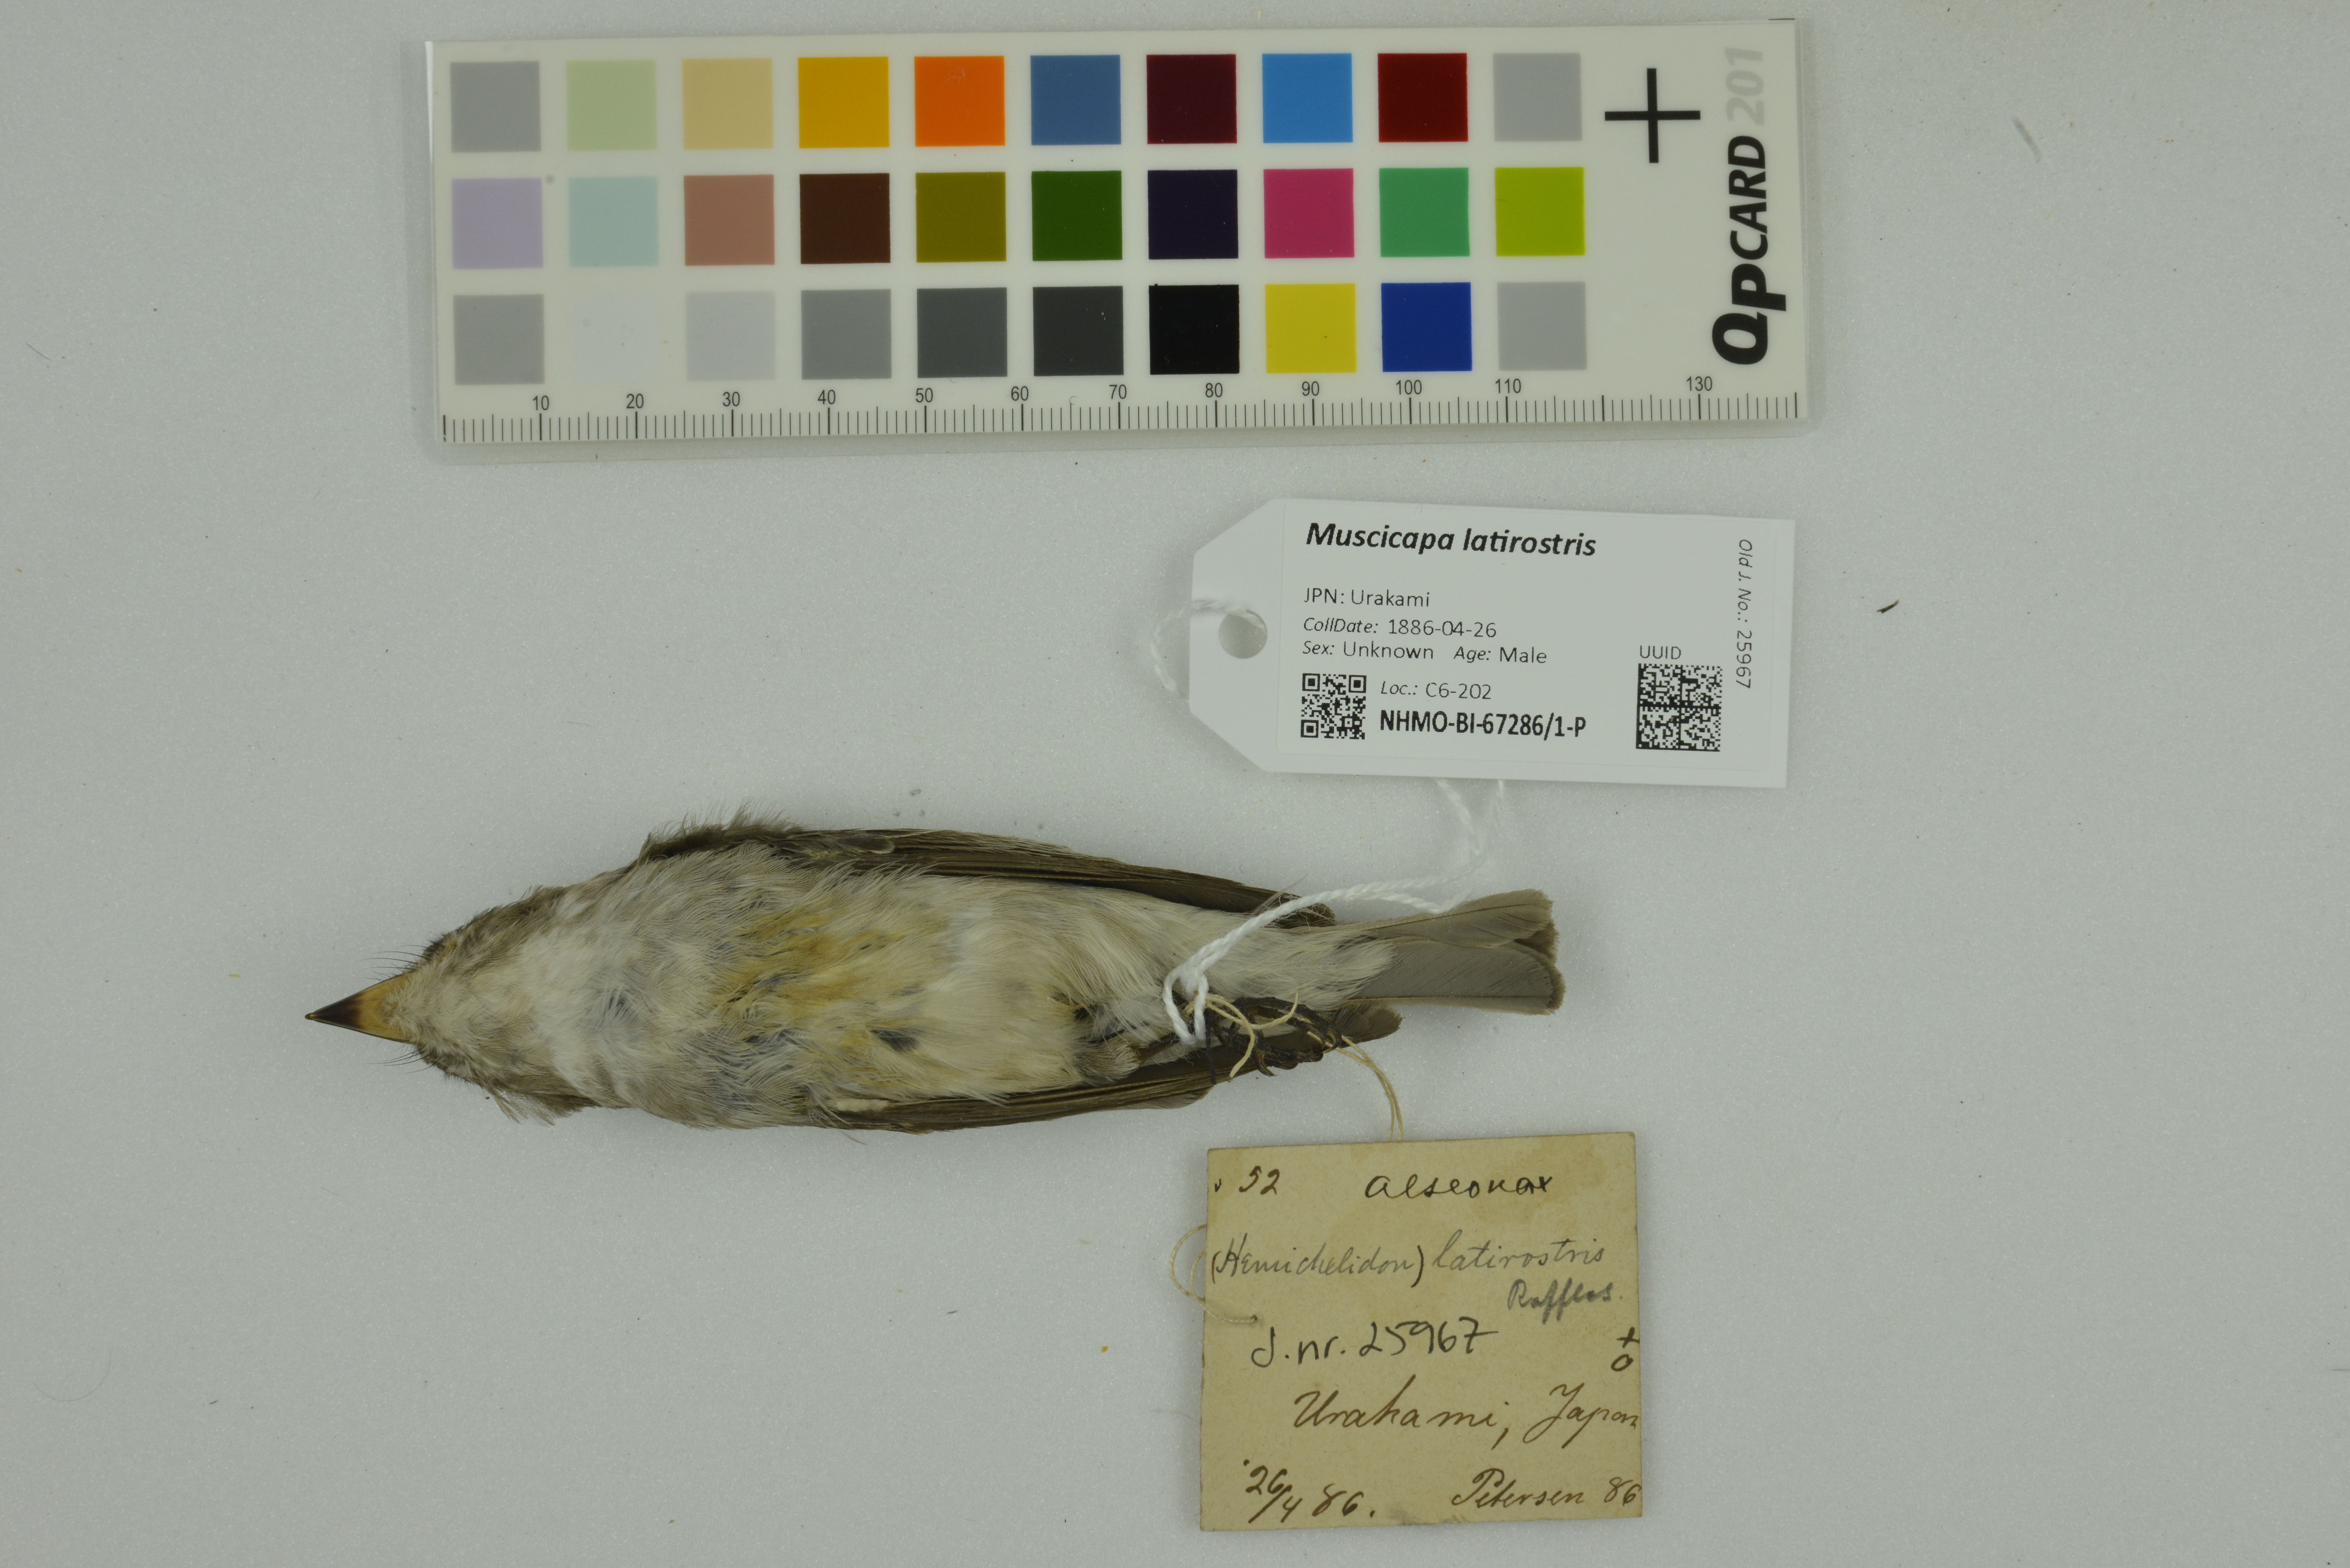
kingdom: Animalia
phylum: Chordata
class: Aves
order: Passeriformes
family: Muscicapidae
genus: Muscicapa
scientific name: Muscicapa latirostris
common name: Asian brown flycatcher
